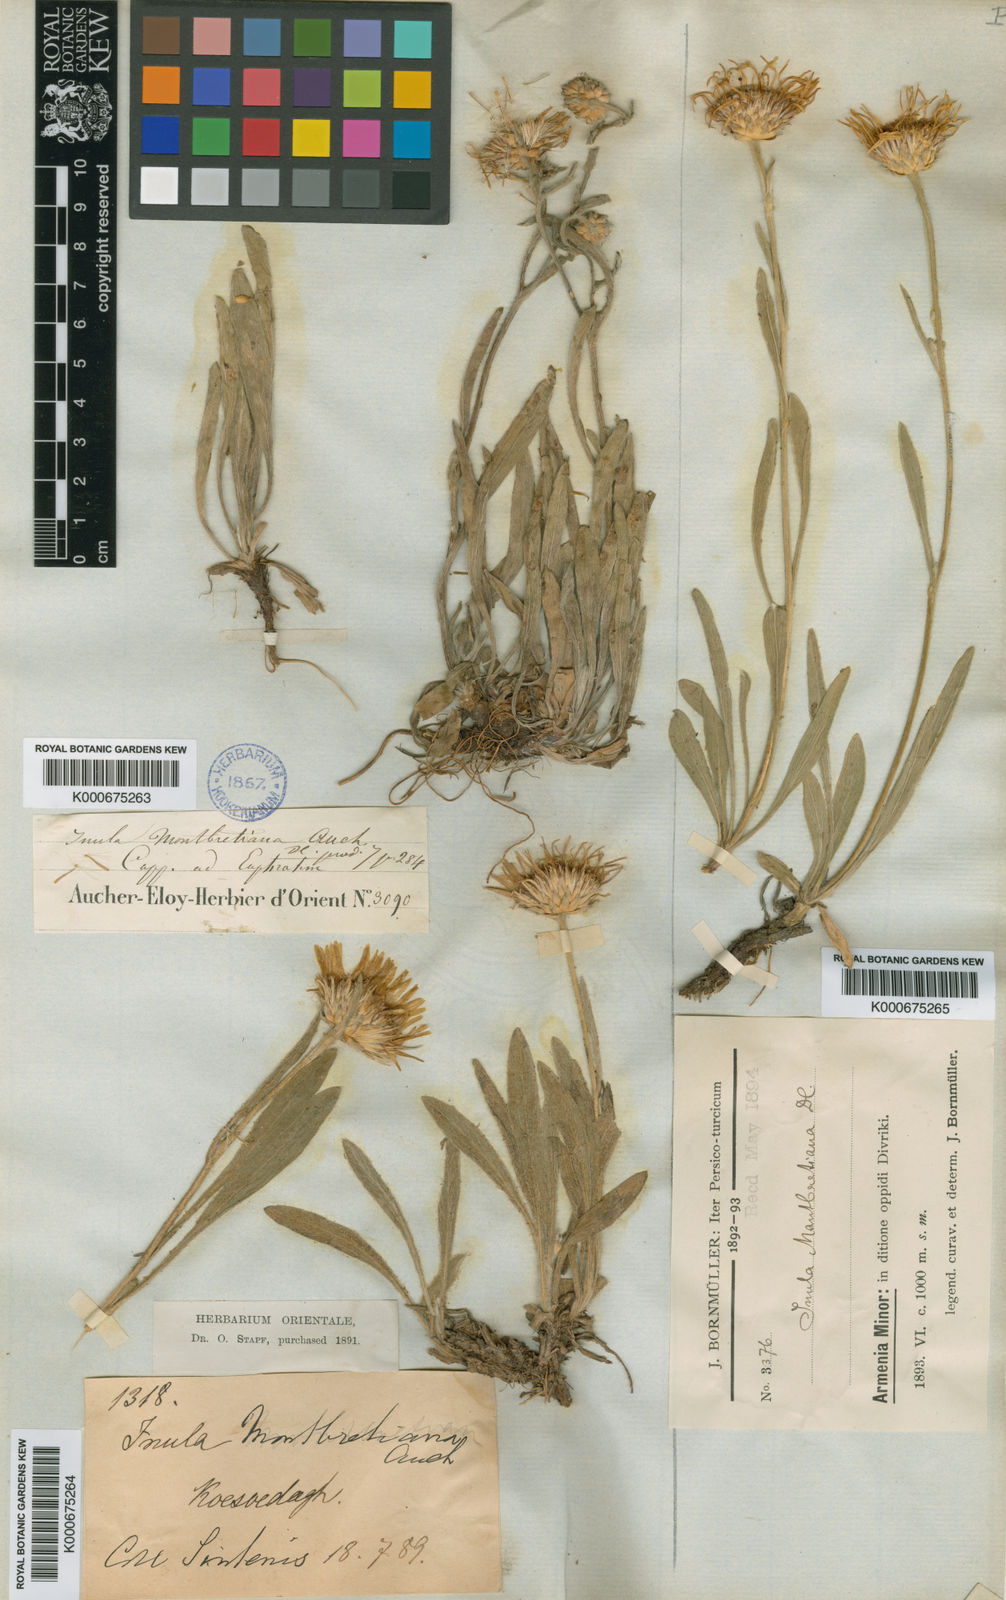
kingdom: Plantae
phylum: Tracheophyta
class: Magnoliopsida
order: Asterales
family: Asteraceae
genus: Inula
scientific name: Inula montbretiana
